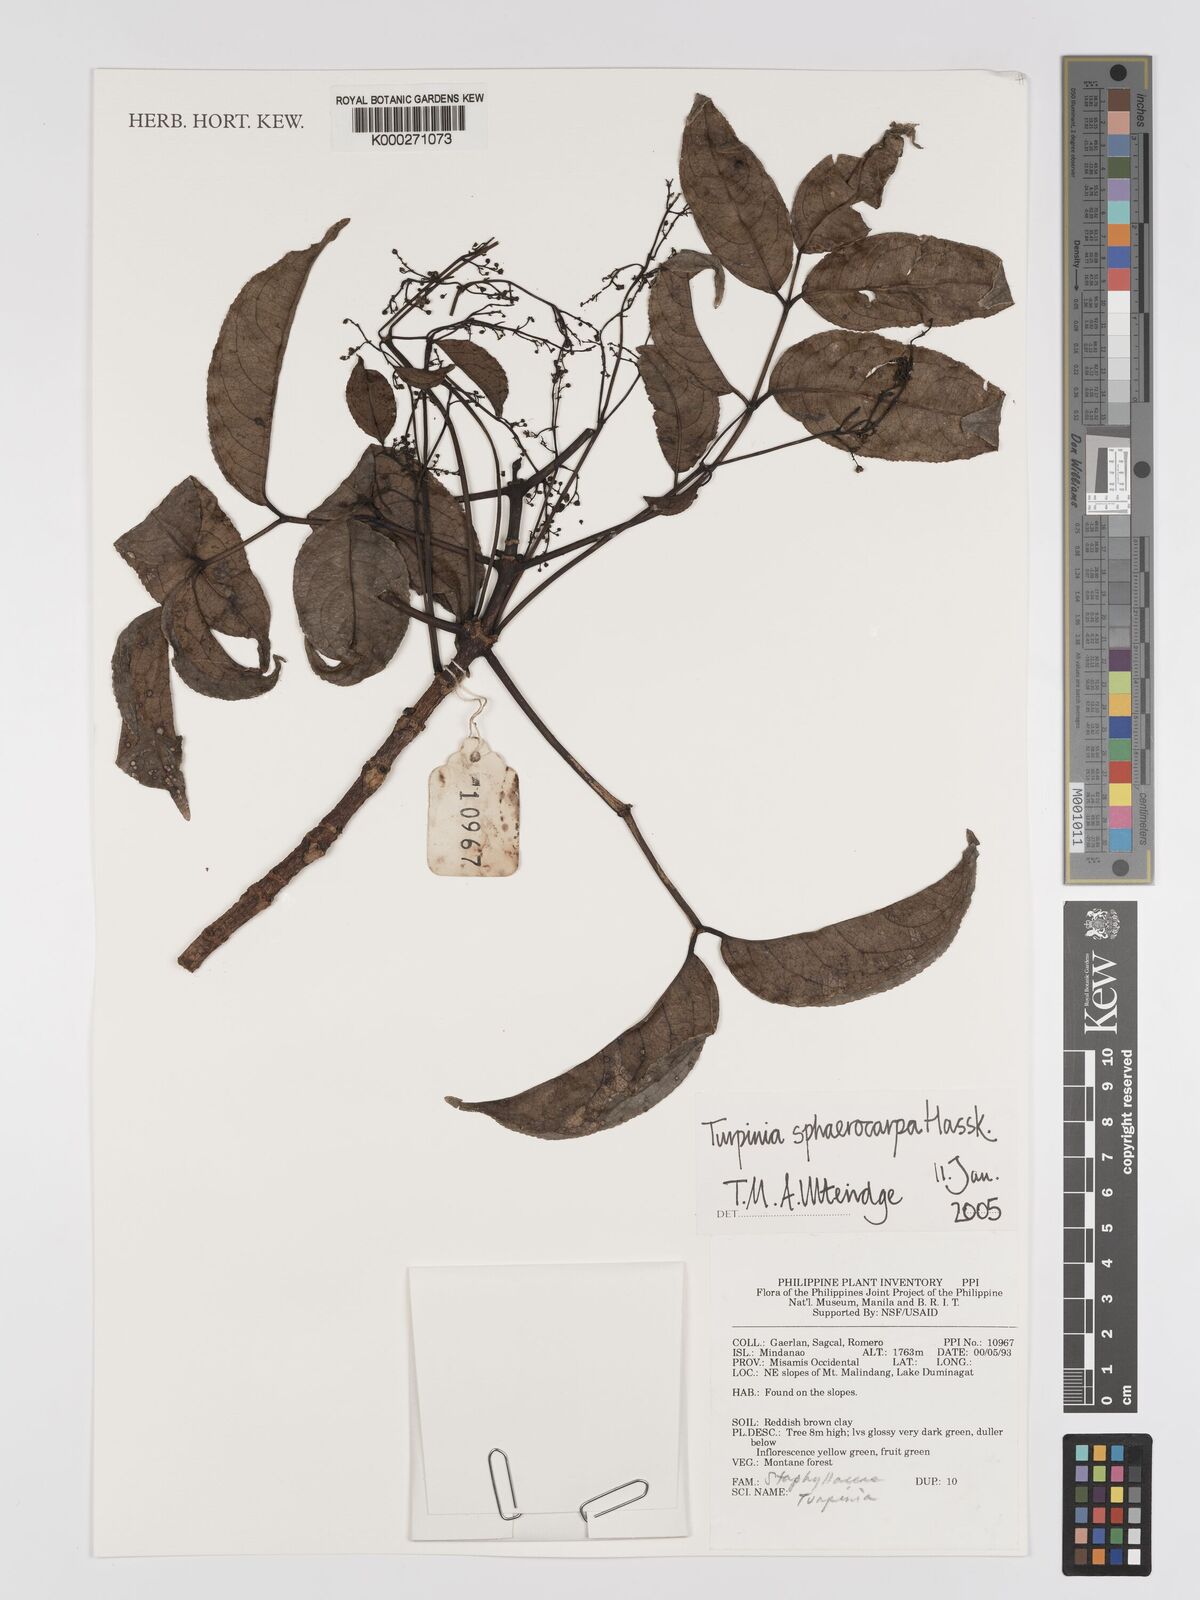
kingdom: Plantae
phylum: Tracheophyta
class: Magnoliopsida
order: Crossosomatales
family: Staphyleaceae
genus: Dalrympelea
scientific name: Dalrympelea sphaerocarpa
